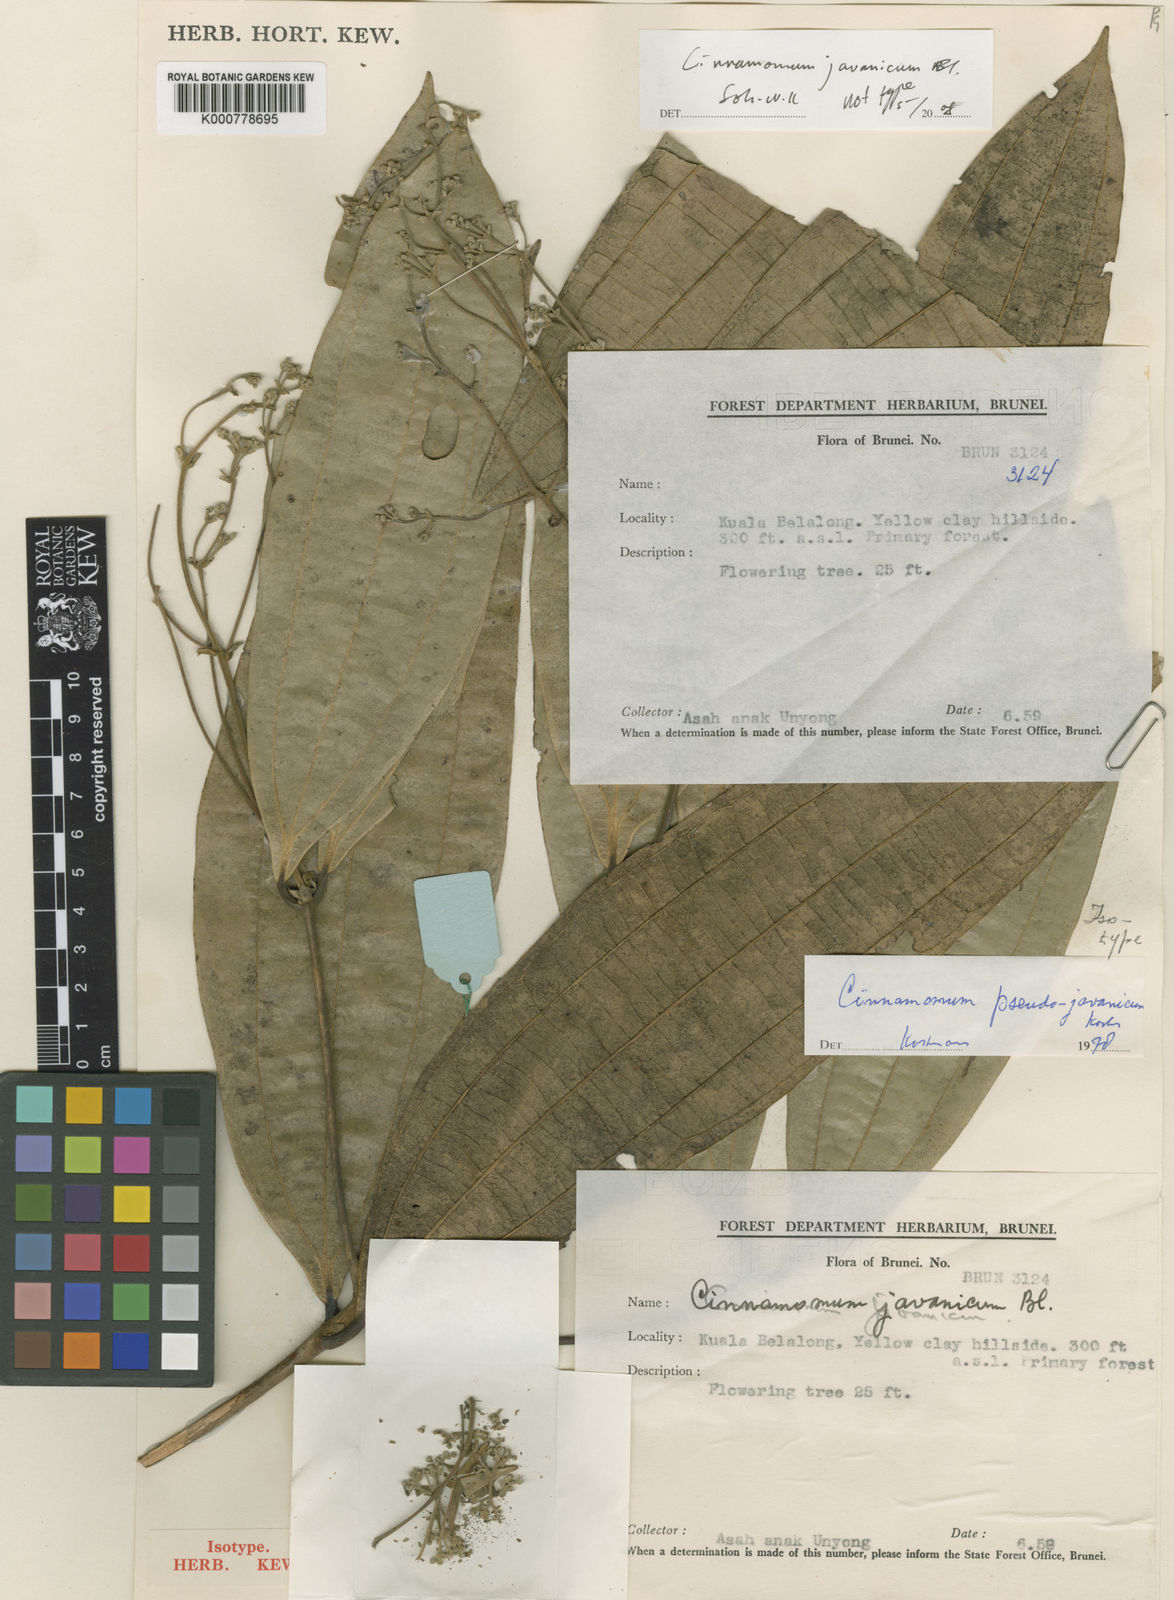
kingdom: Plantae
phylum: Tracheophyta
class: Magnoliopsida
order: Laurales
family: Lauraceae
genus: Cinnamomum
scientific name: Cinnamomum
